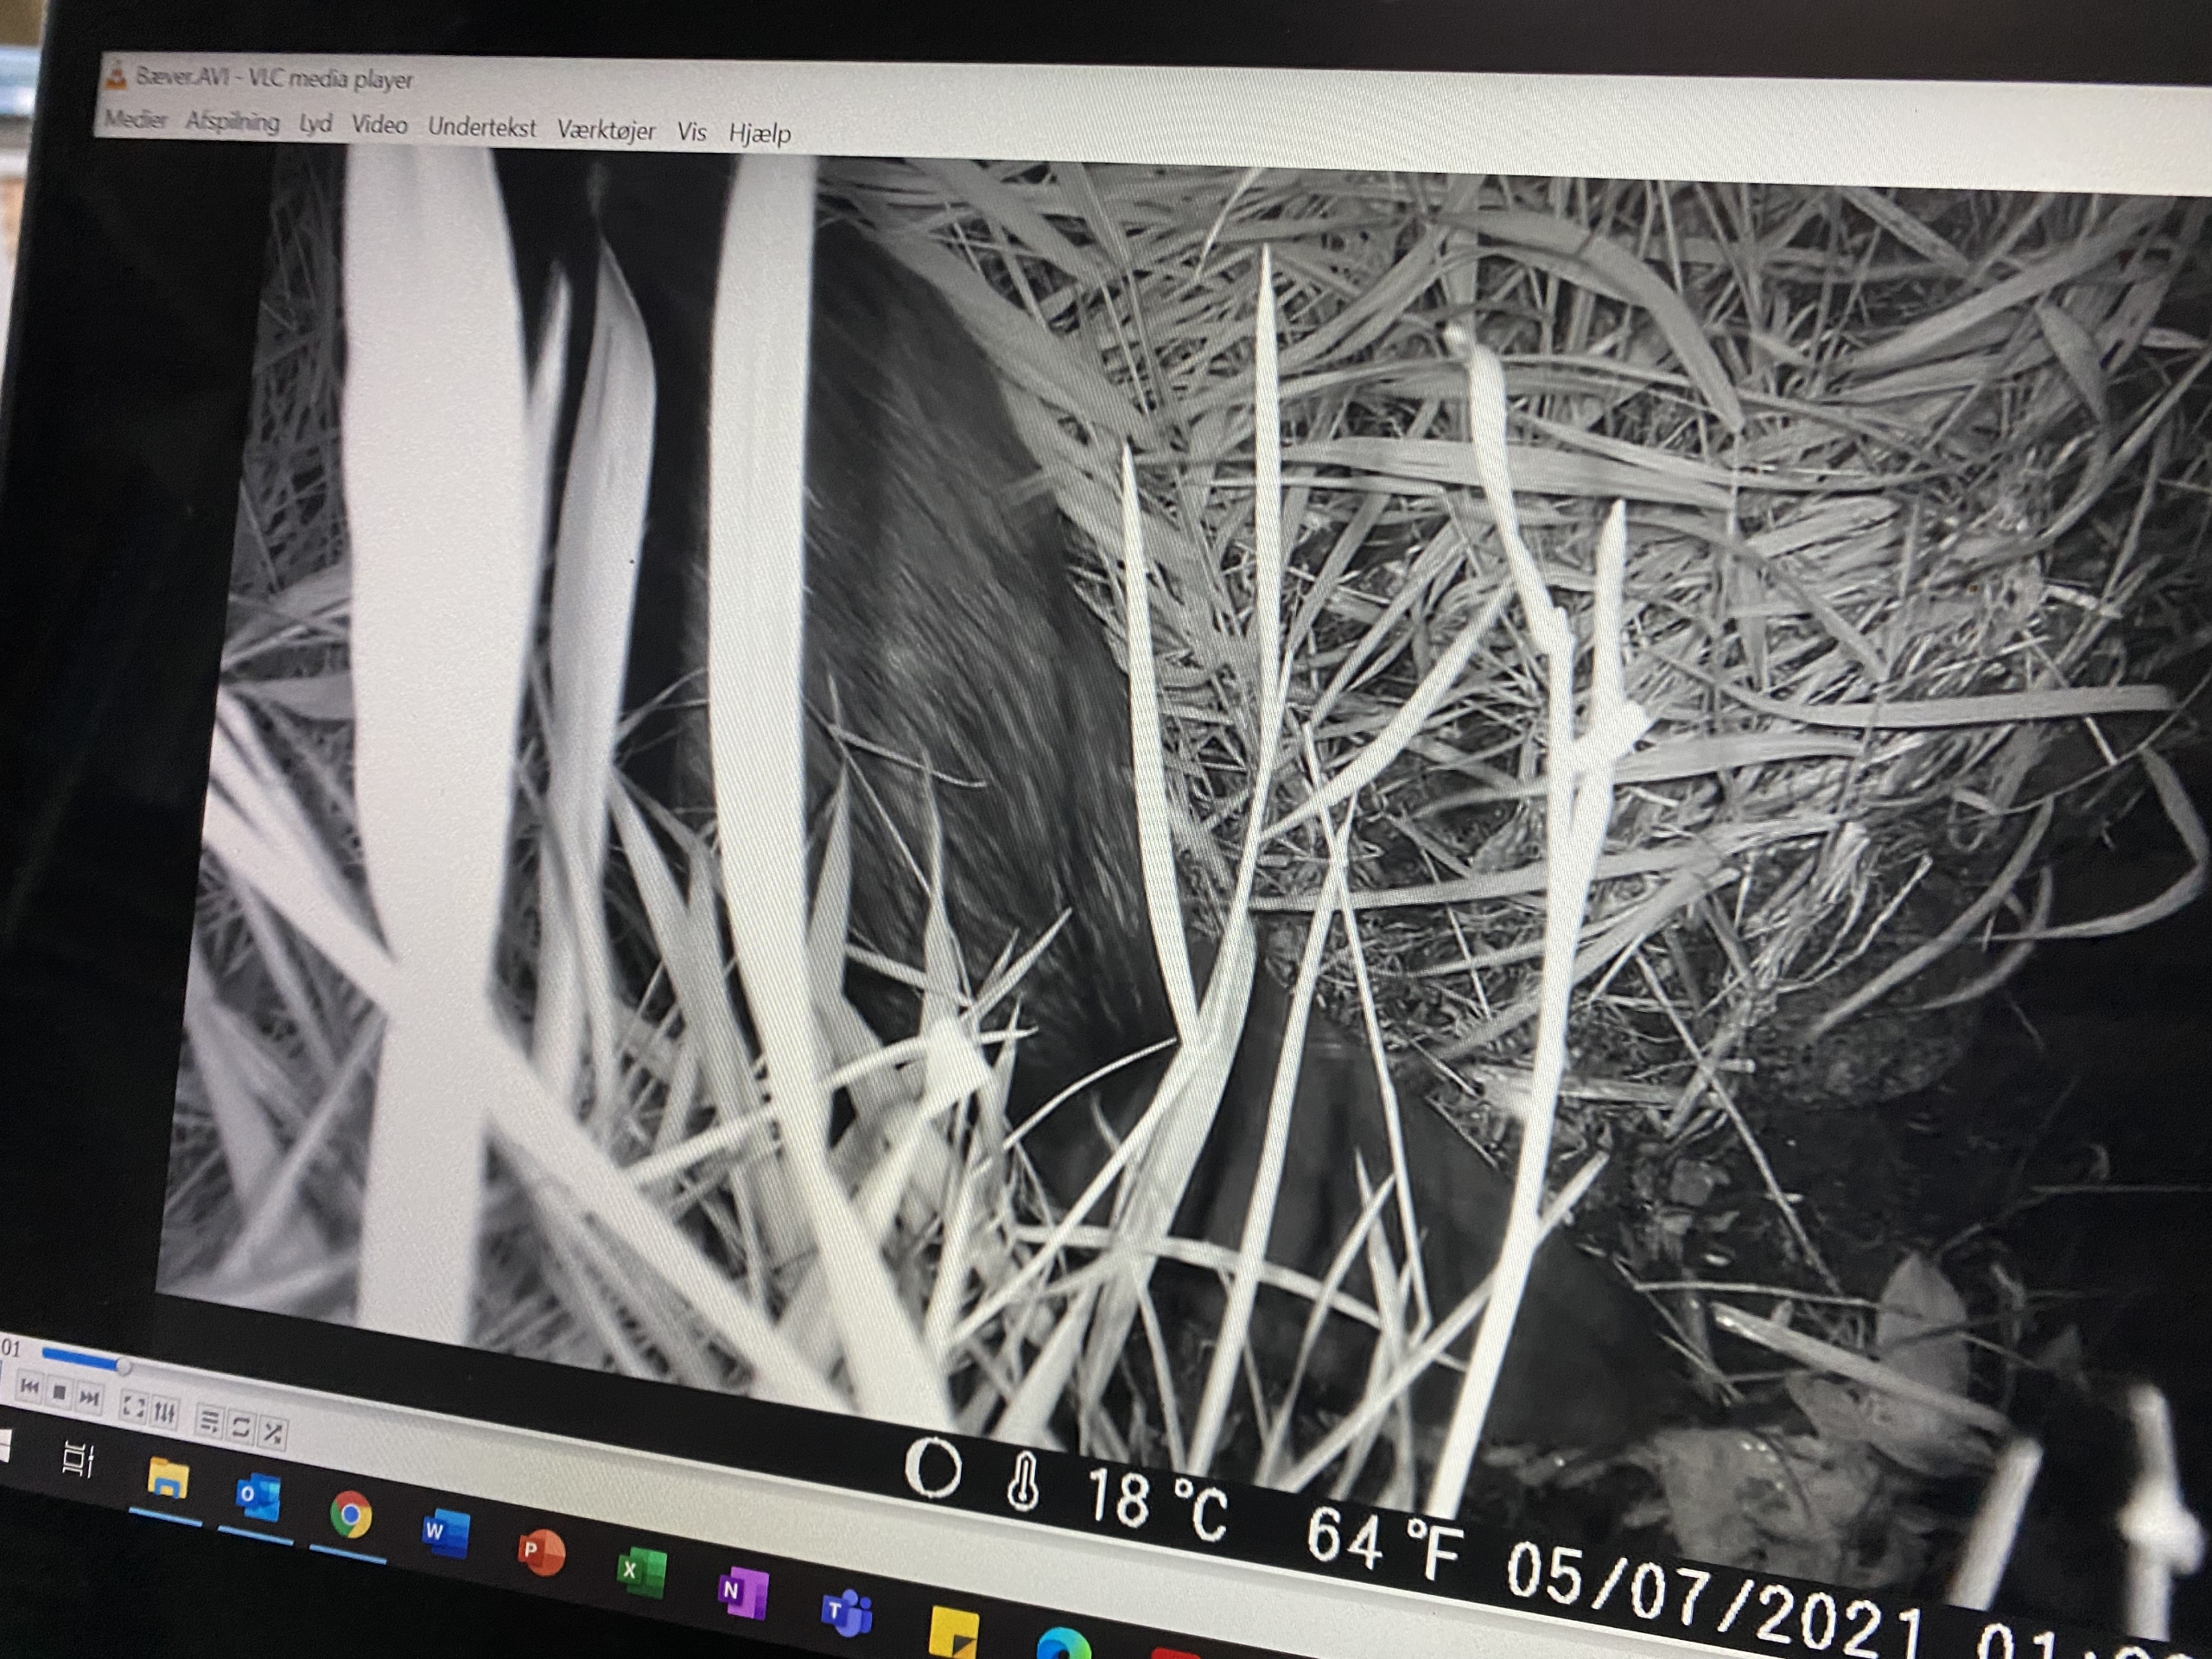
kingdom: Animalia
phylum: Chordata
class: Mammalia
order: Rodentia
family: Castoridae
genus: Castor
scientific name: Castor fiber
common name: Bæver
